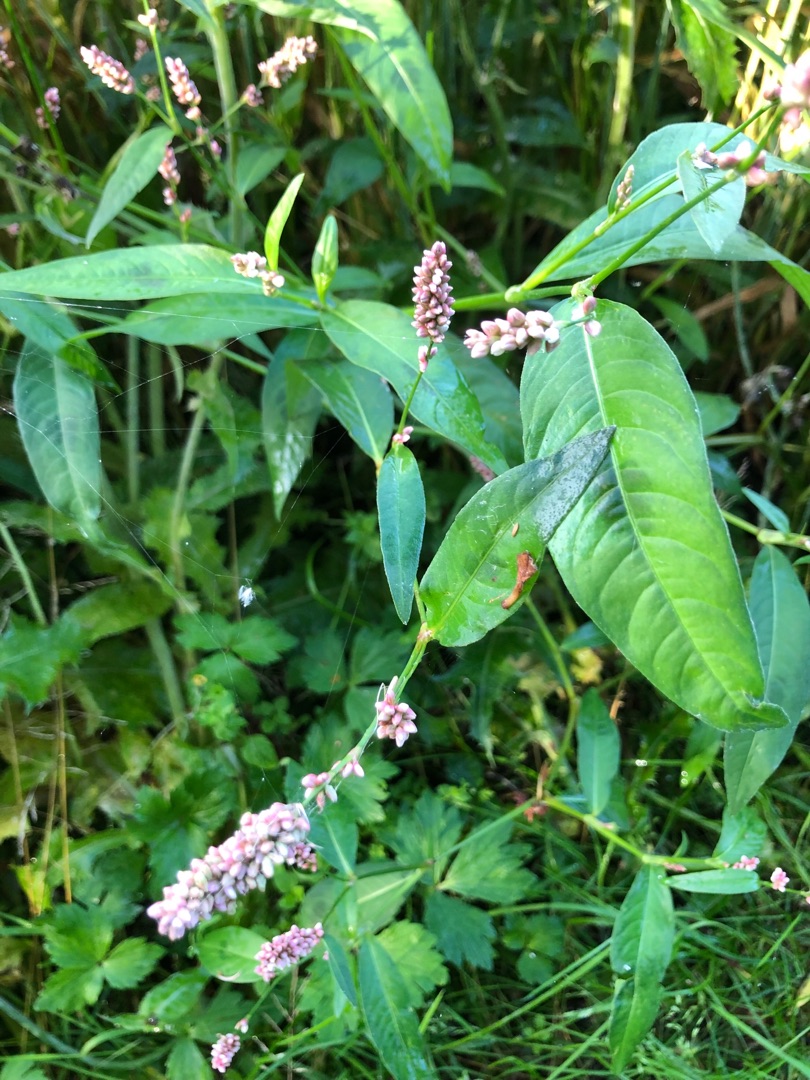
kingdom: Plantae
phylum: Tracheophyta
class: Magnoliopsida
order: Caryophyllales
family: Polygonaceae
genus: Persicaria
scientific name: Persicaria maculosa
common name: Fersken-pileurt
